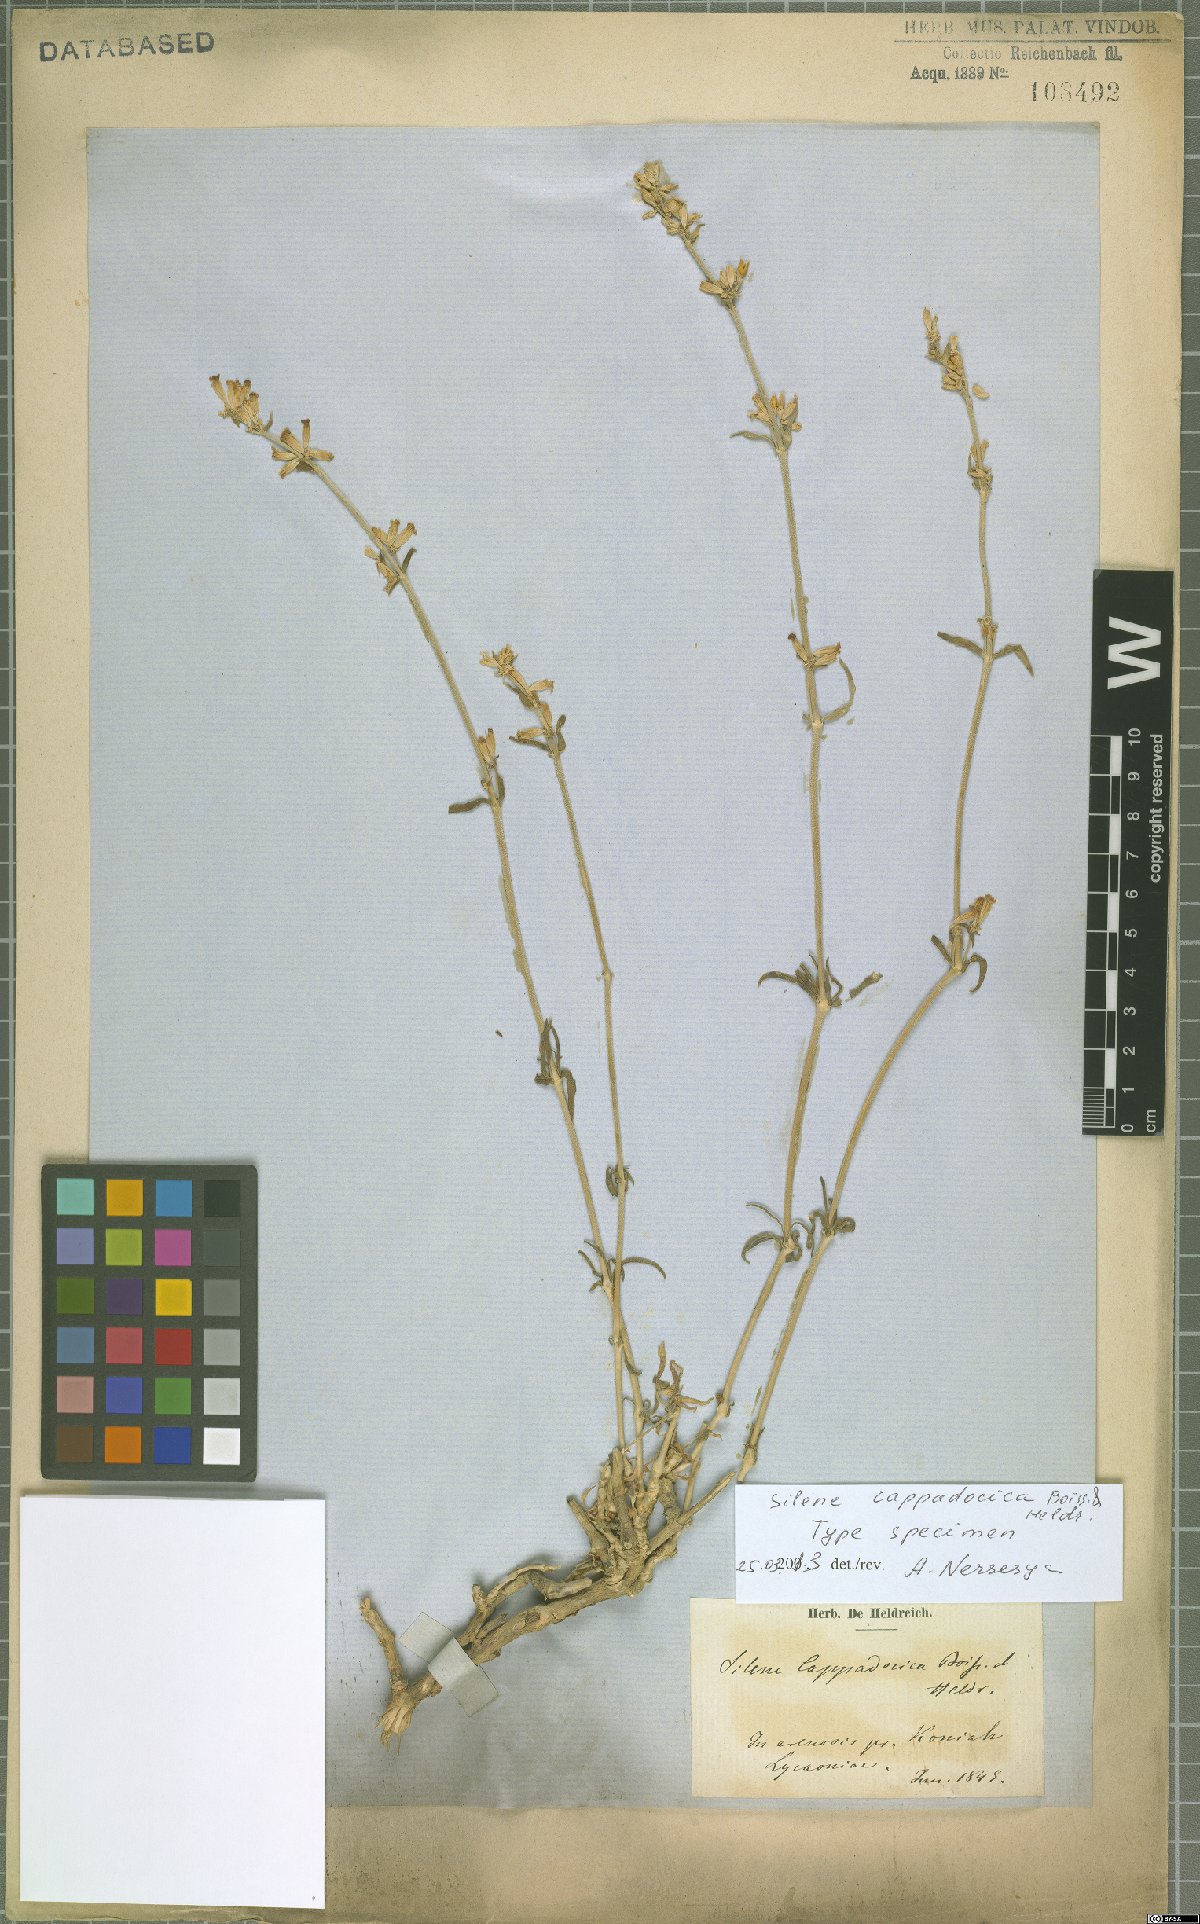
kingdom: Plantae
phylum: Tracheophyta
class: Magnoliopsida
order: Caryophyllales
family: Caryophyllaceae
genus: Silene
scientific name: Silene cappadocica
